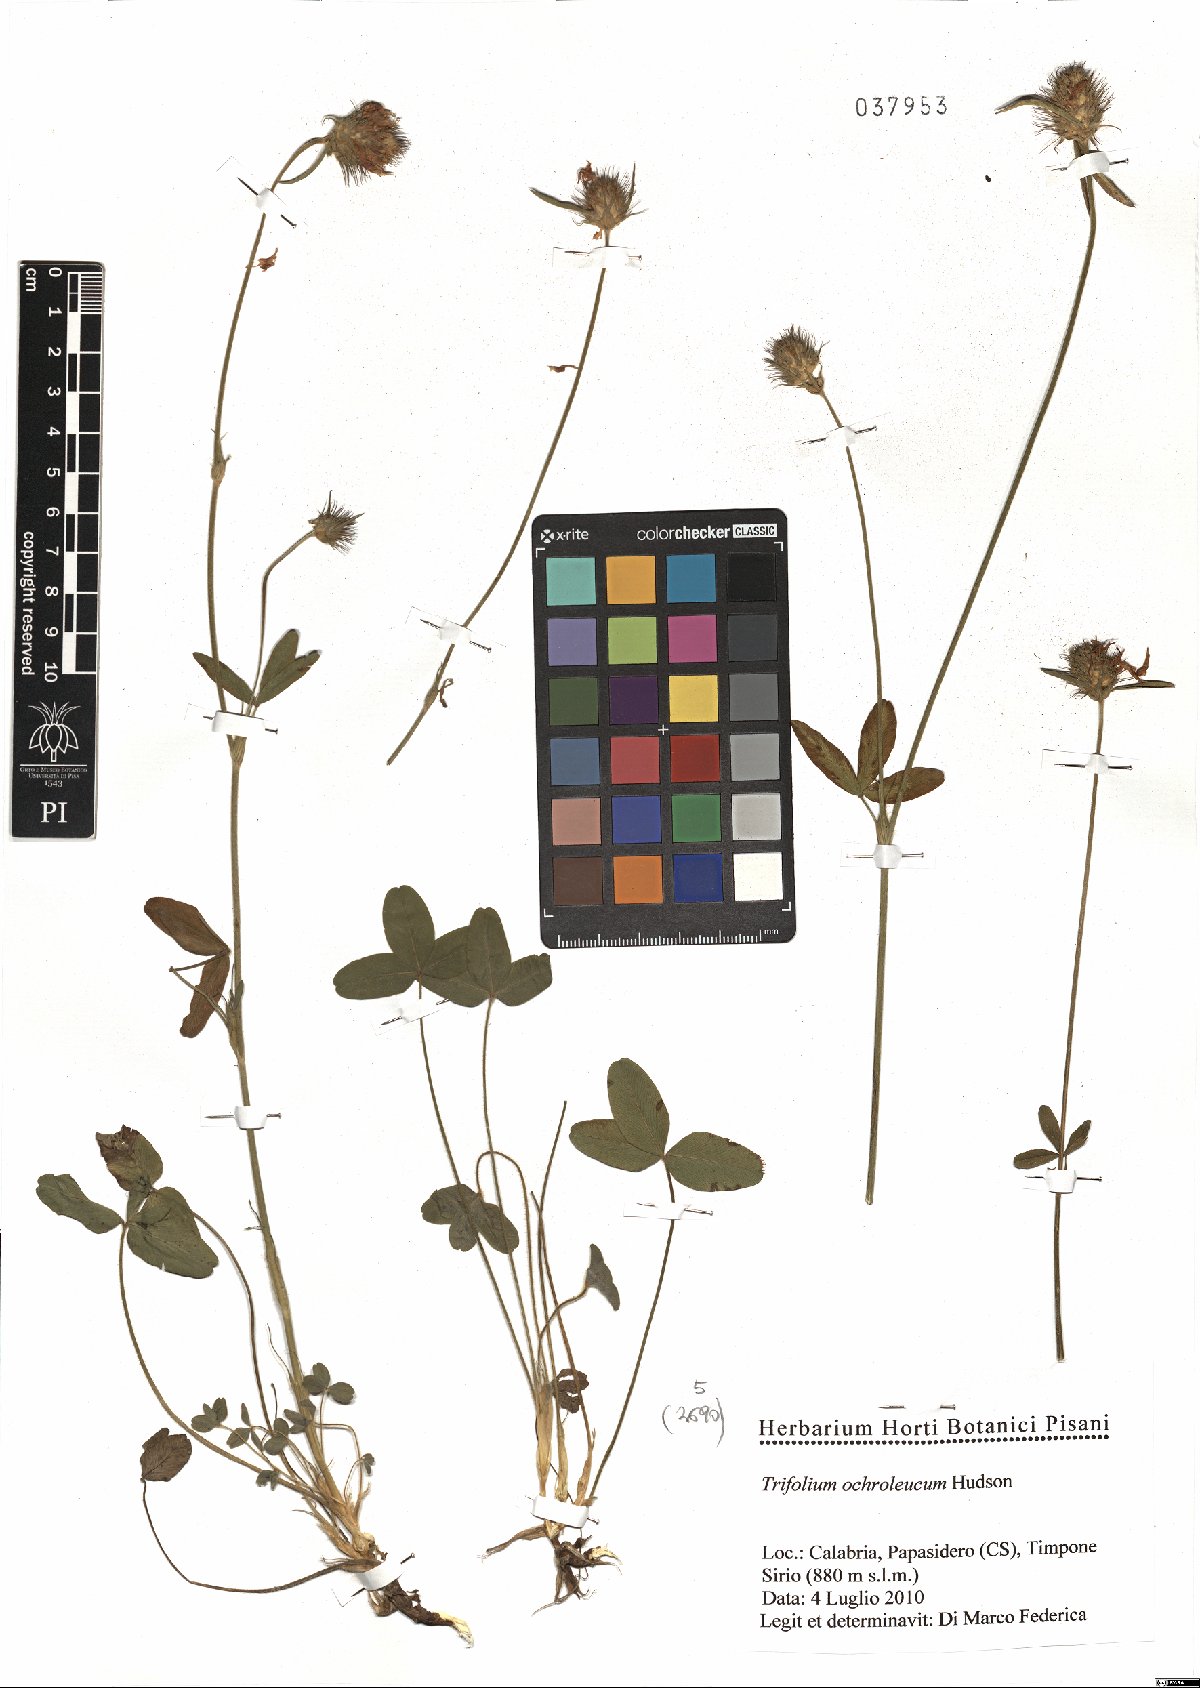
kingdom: Plantae
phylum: Tracheophyta
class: Magnoliopsida
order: Fabales
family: Fabaceae
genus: Trifolium
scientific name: Trifolium ochroleucon
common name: Sulphur clover
